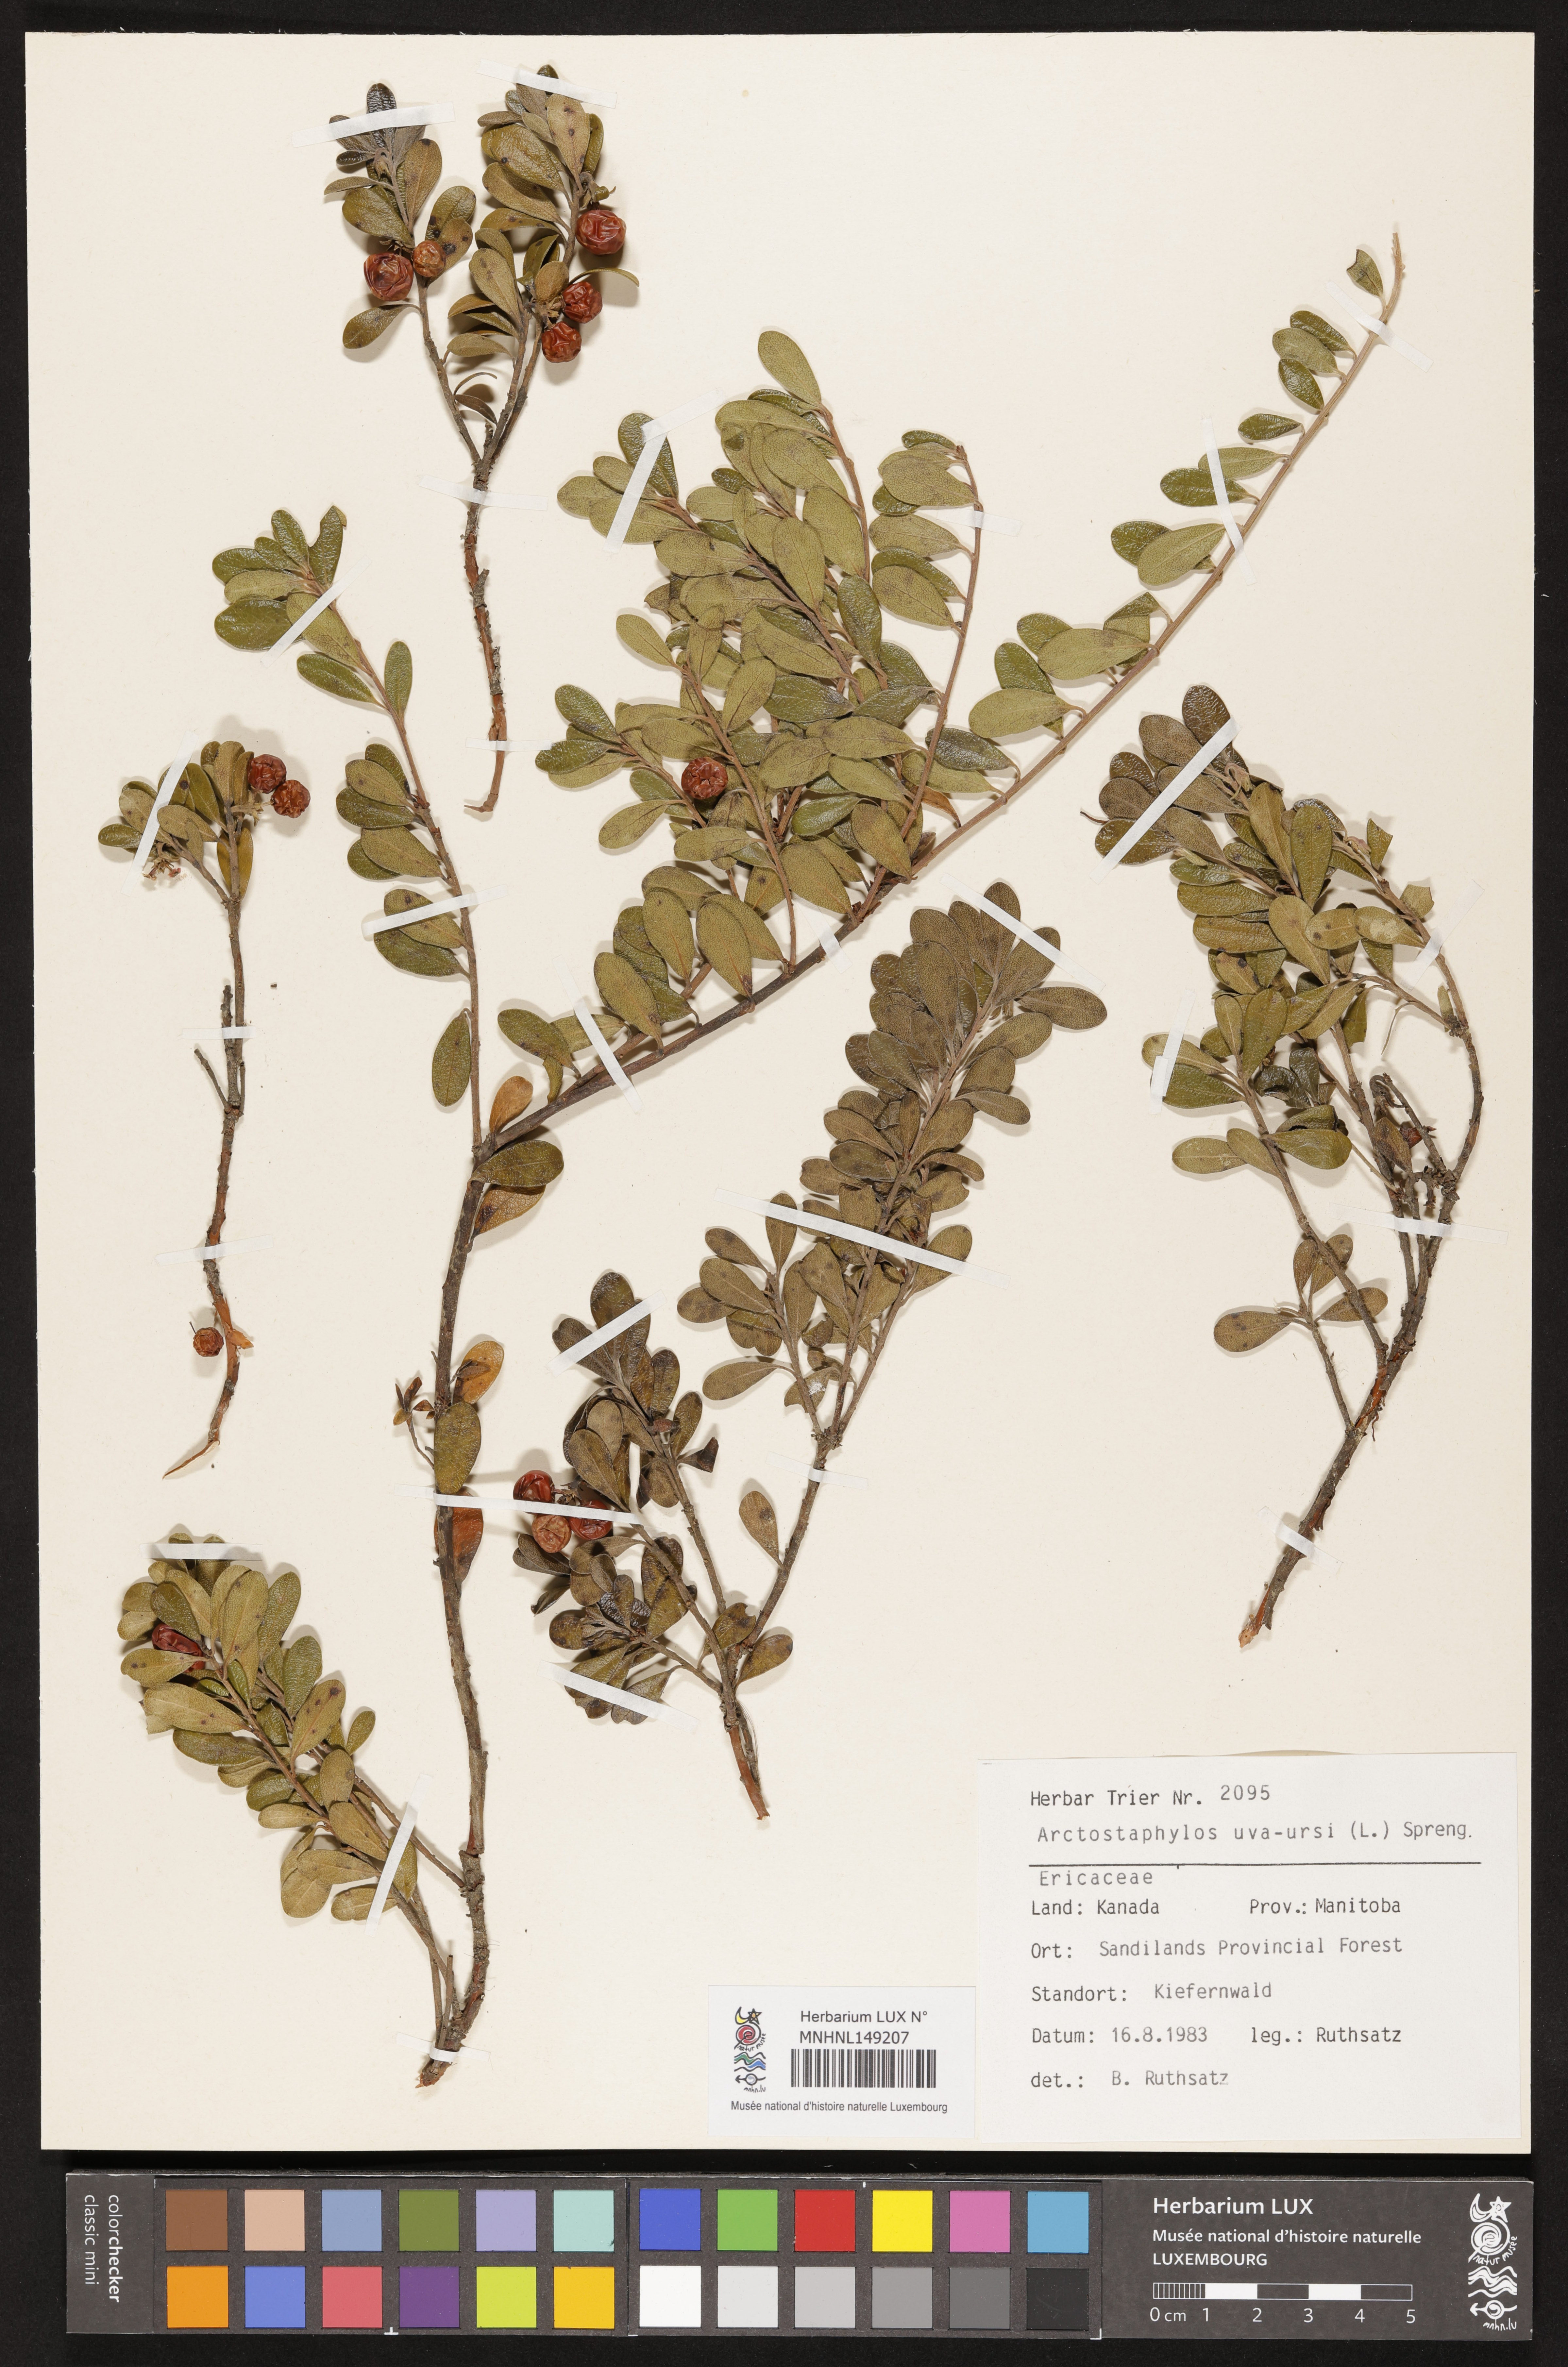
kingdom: Plantae
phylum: Tracheophyta
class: Magnoliopsida
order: Ericales
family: Ericaceae
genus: Arctostaphylos
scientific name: Arctostaphylos uva-ursi
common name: Bearberry
